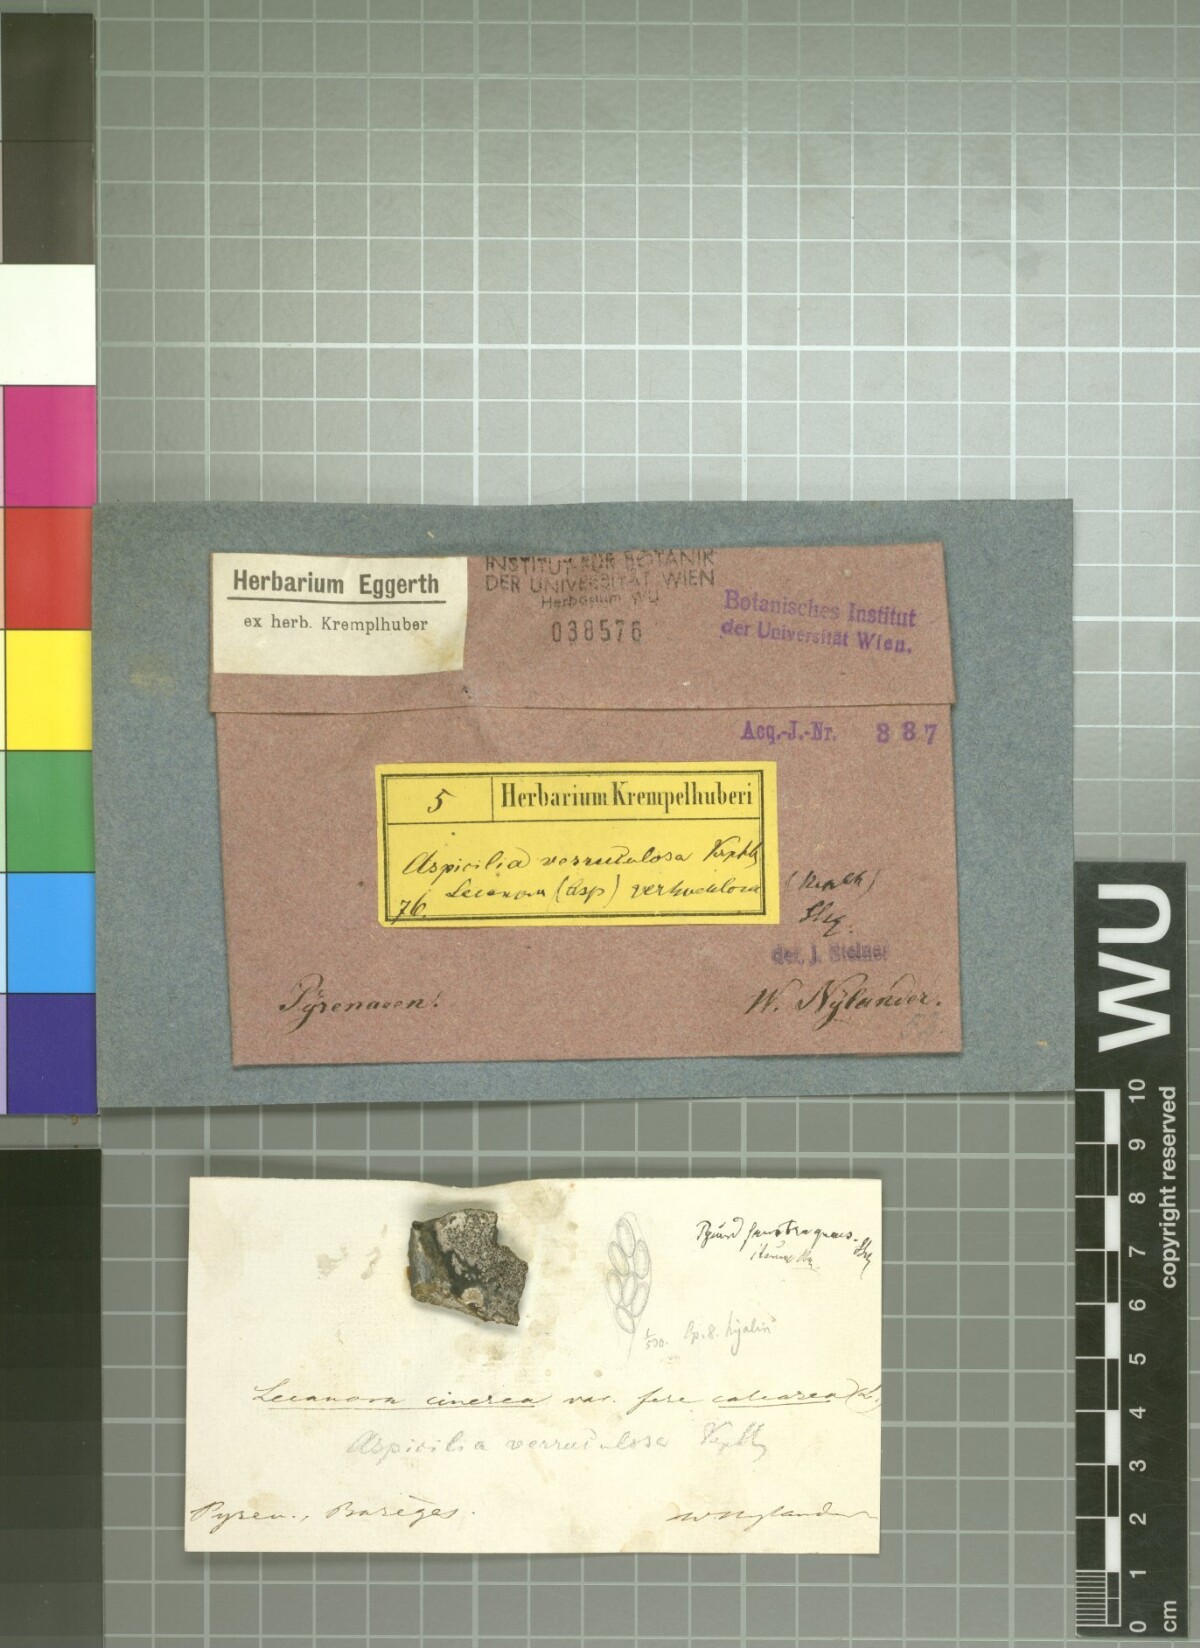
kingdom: Fungi
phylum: Ascomycota
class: Lecanoromycetes
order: Pertusariales
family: Megasporaceae
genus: Oxneriaria
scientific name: Oxneriaria verruculosa
